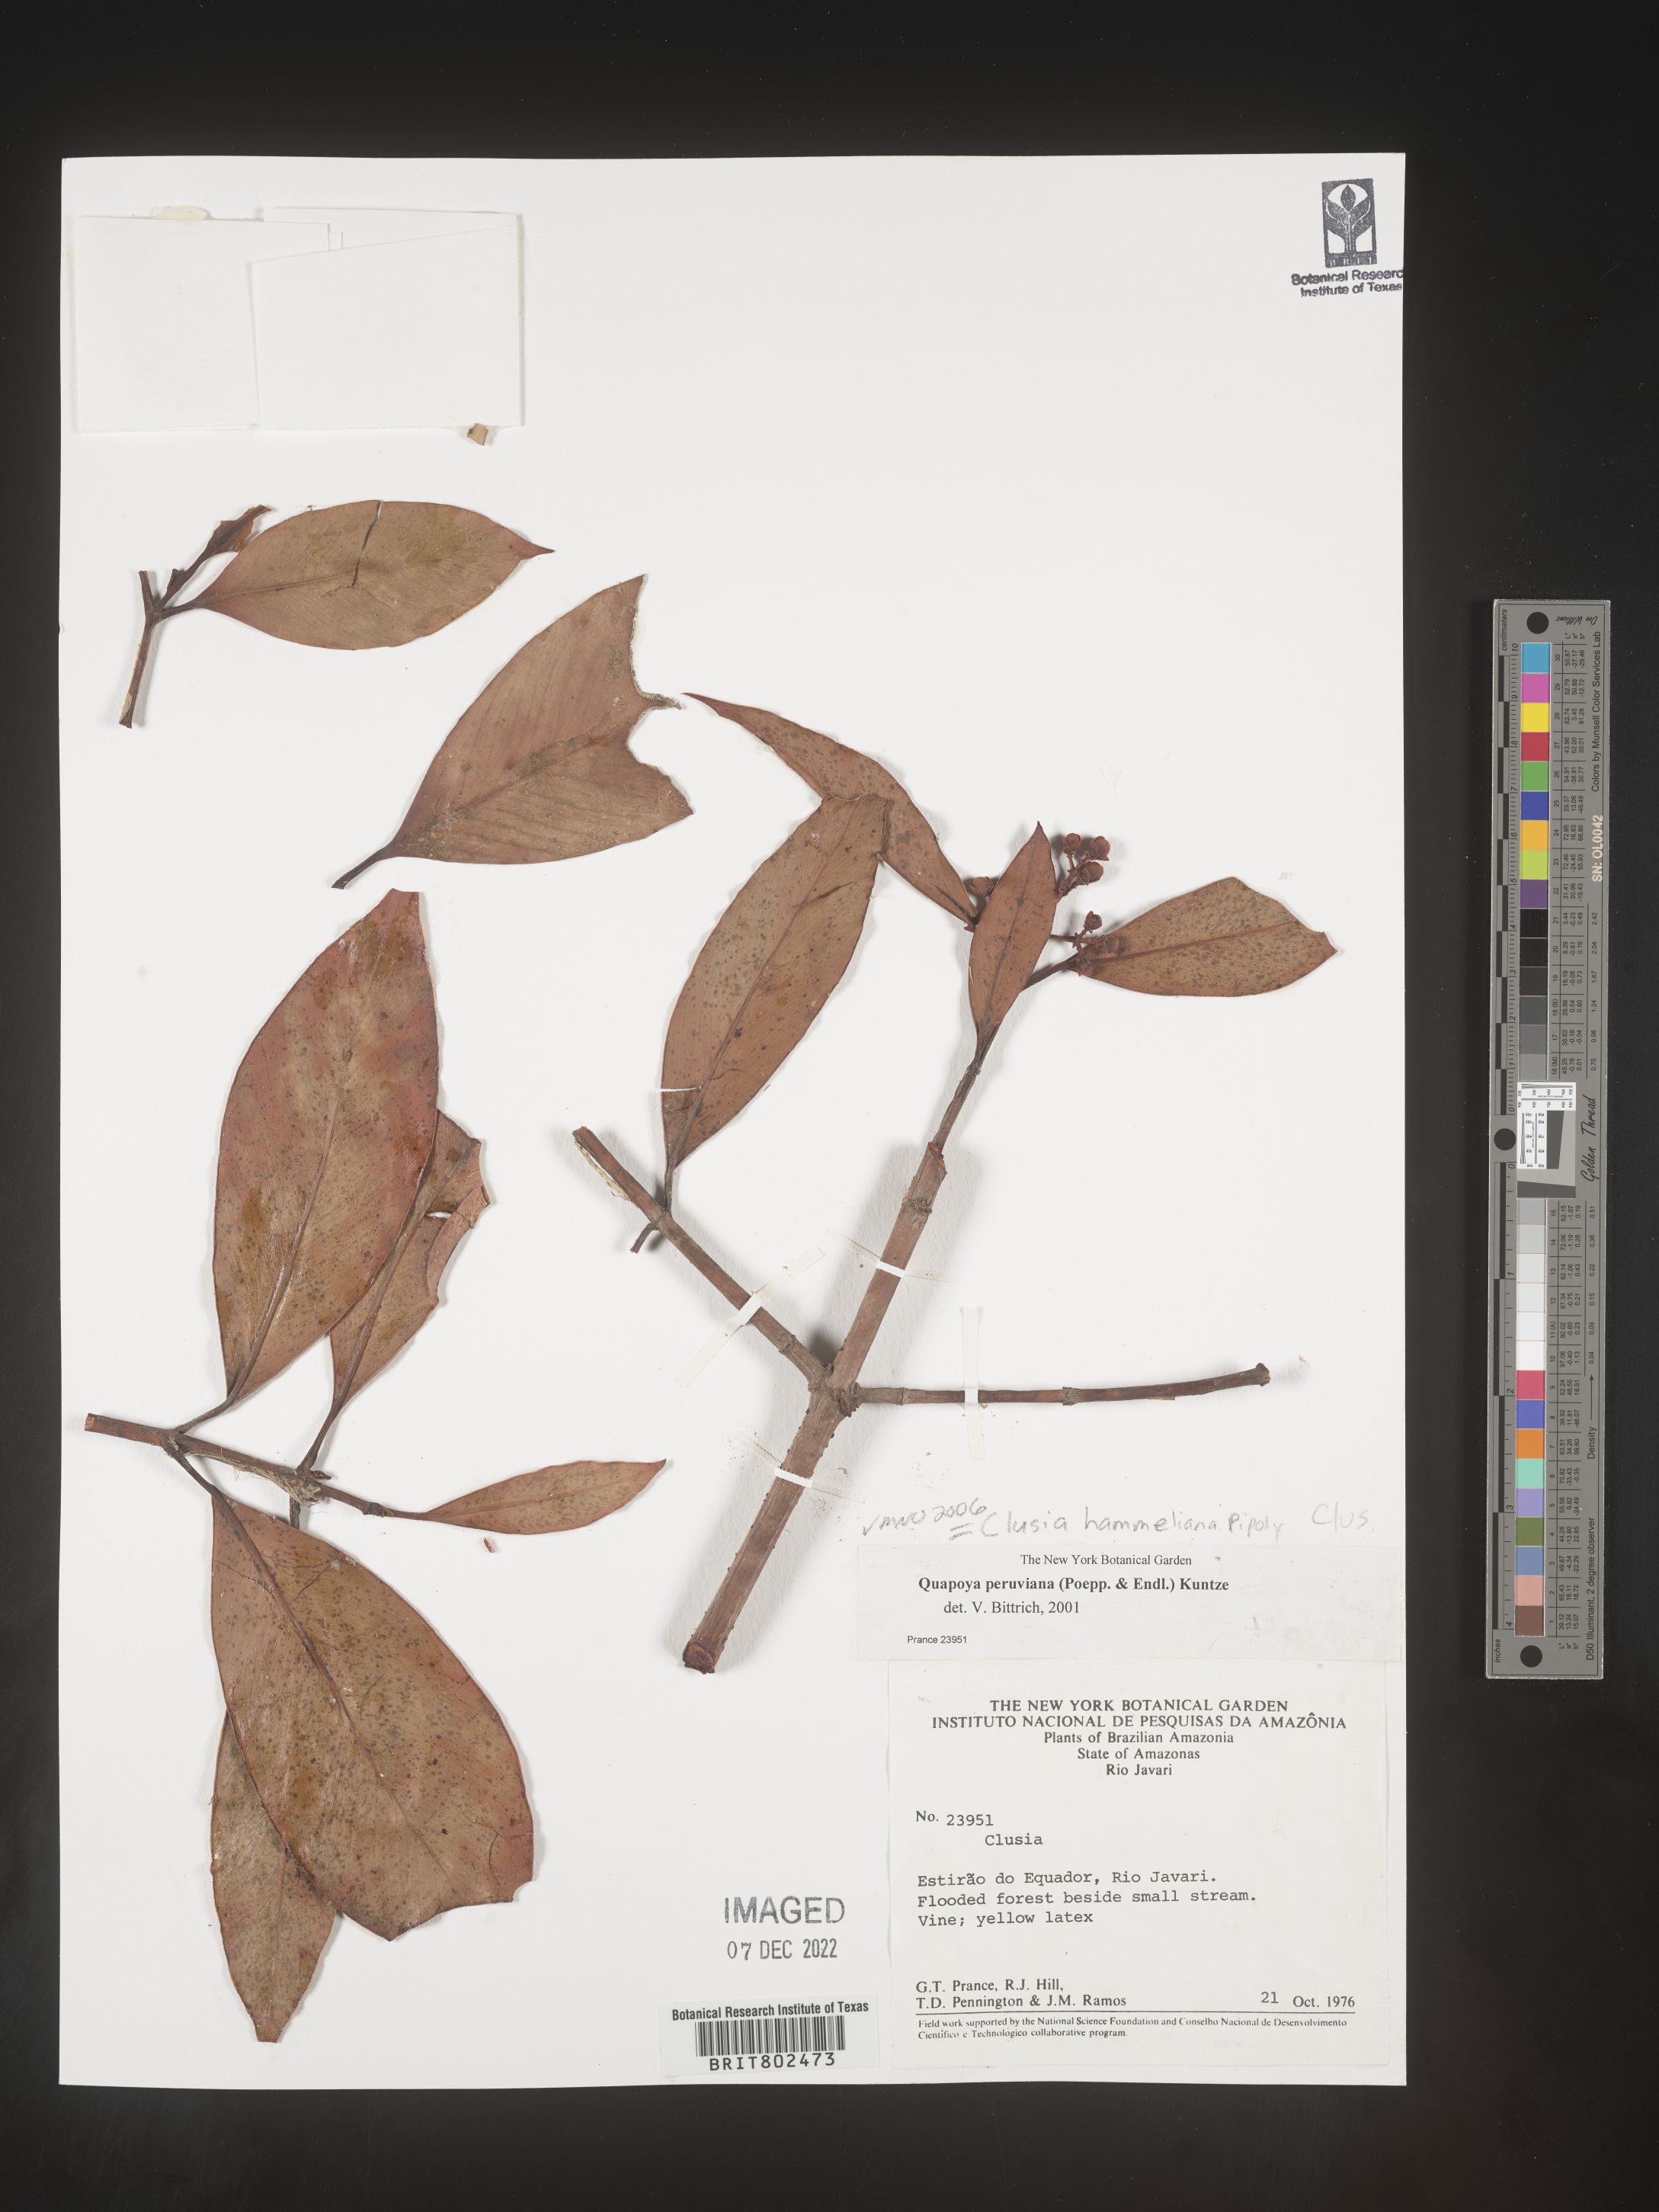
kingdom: Plantae
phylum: Tracheophyta
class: Magnoliopsida
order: Malpighiales
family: Clusiaceae
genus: Clusia
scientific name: Clusia hammeliana
